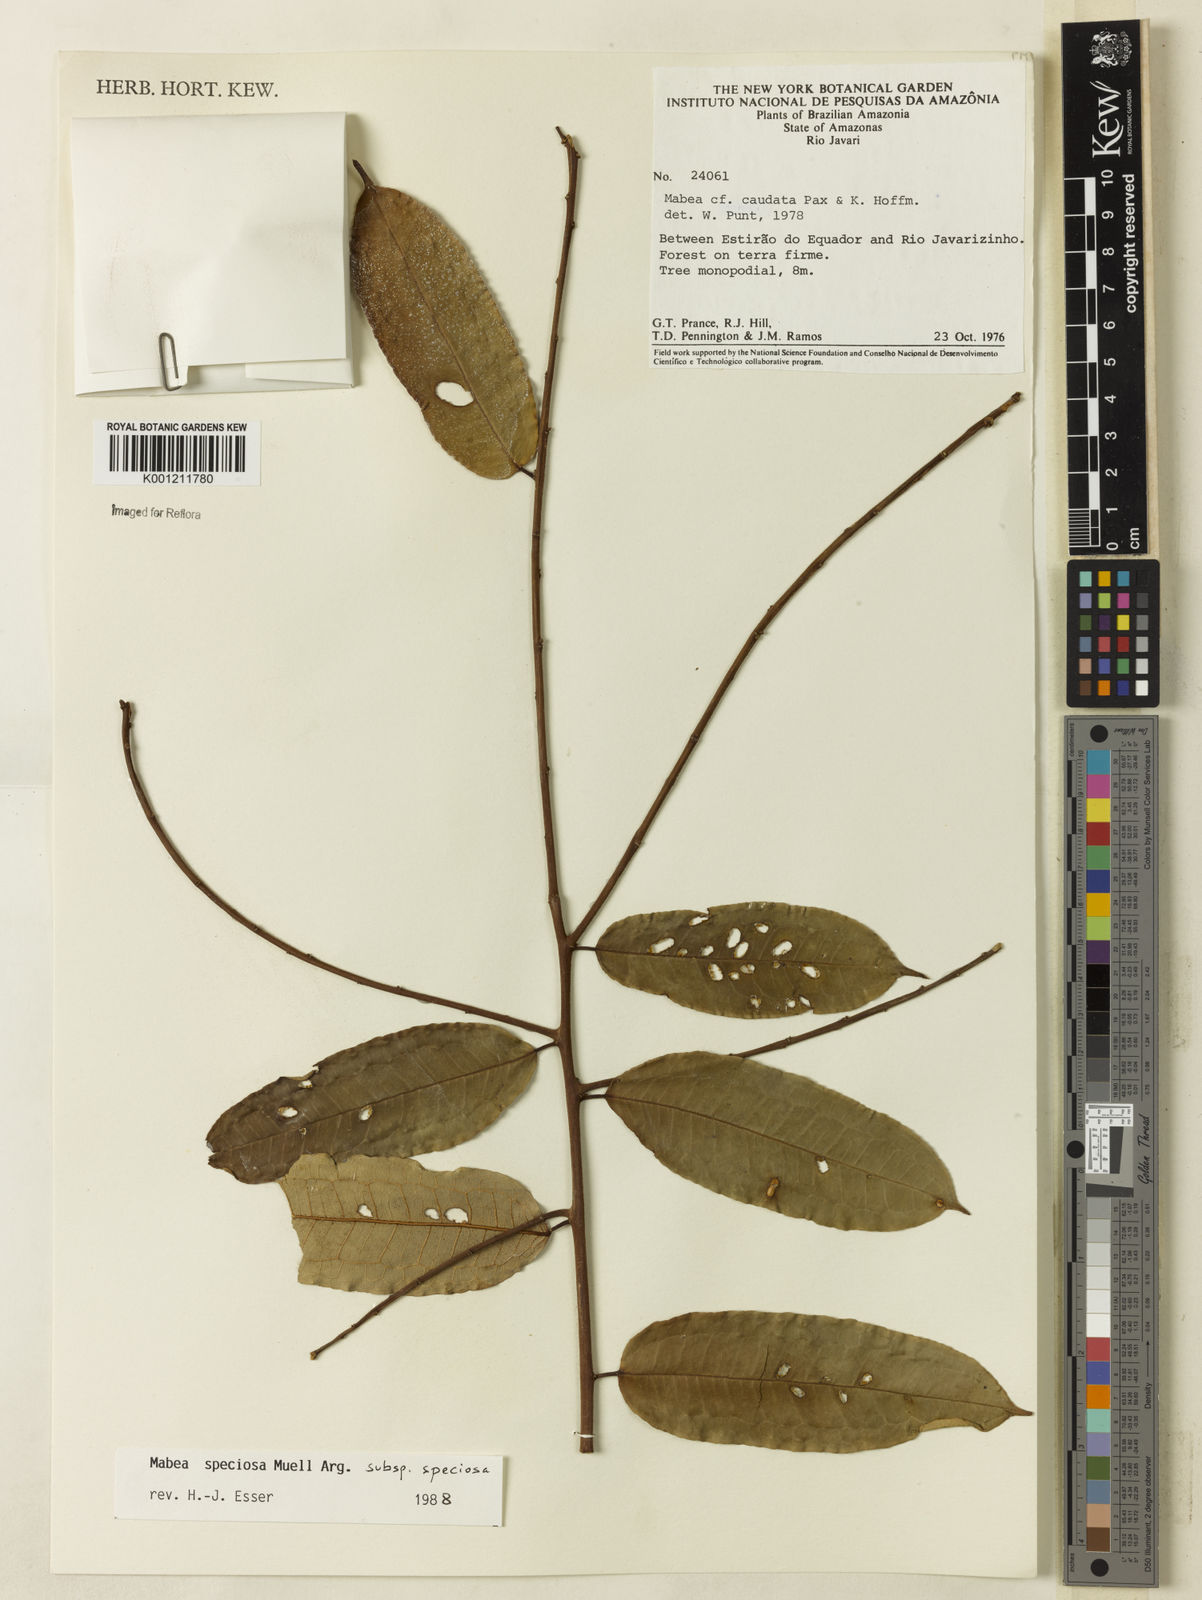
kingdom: Plantae
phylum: Tracheophyta
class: Magnoliopsida
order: Malpighiales
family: Euphorbiaceae
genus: Mabea
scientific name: Mabea
